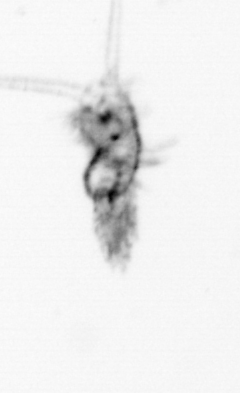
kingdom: Animalia
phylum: Arthropoda
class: Maxillopoda
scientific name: Maxillopoda
